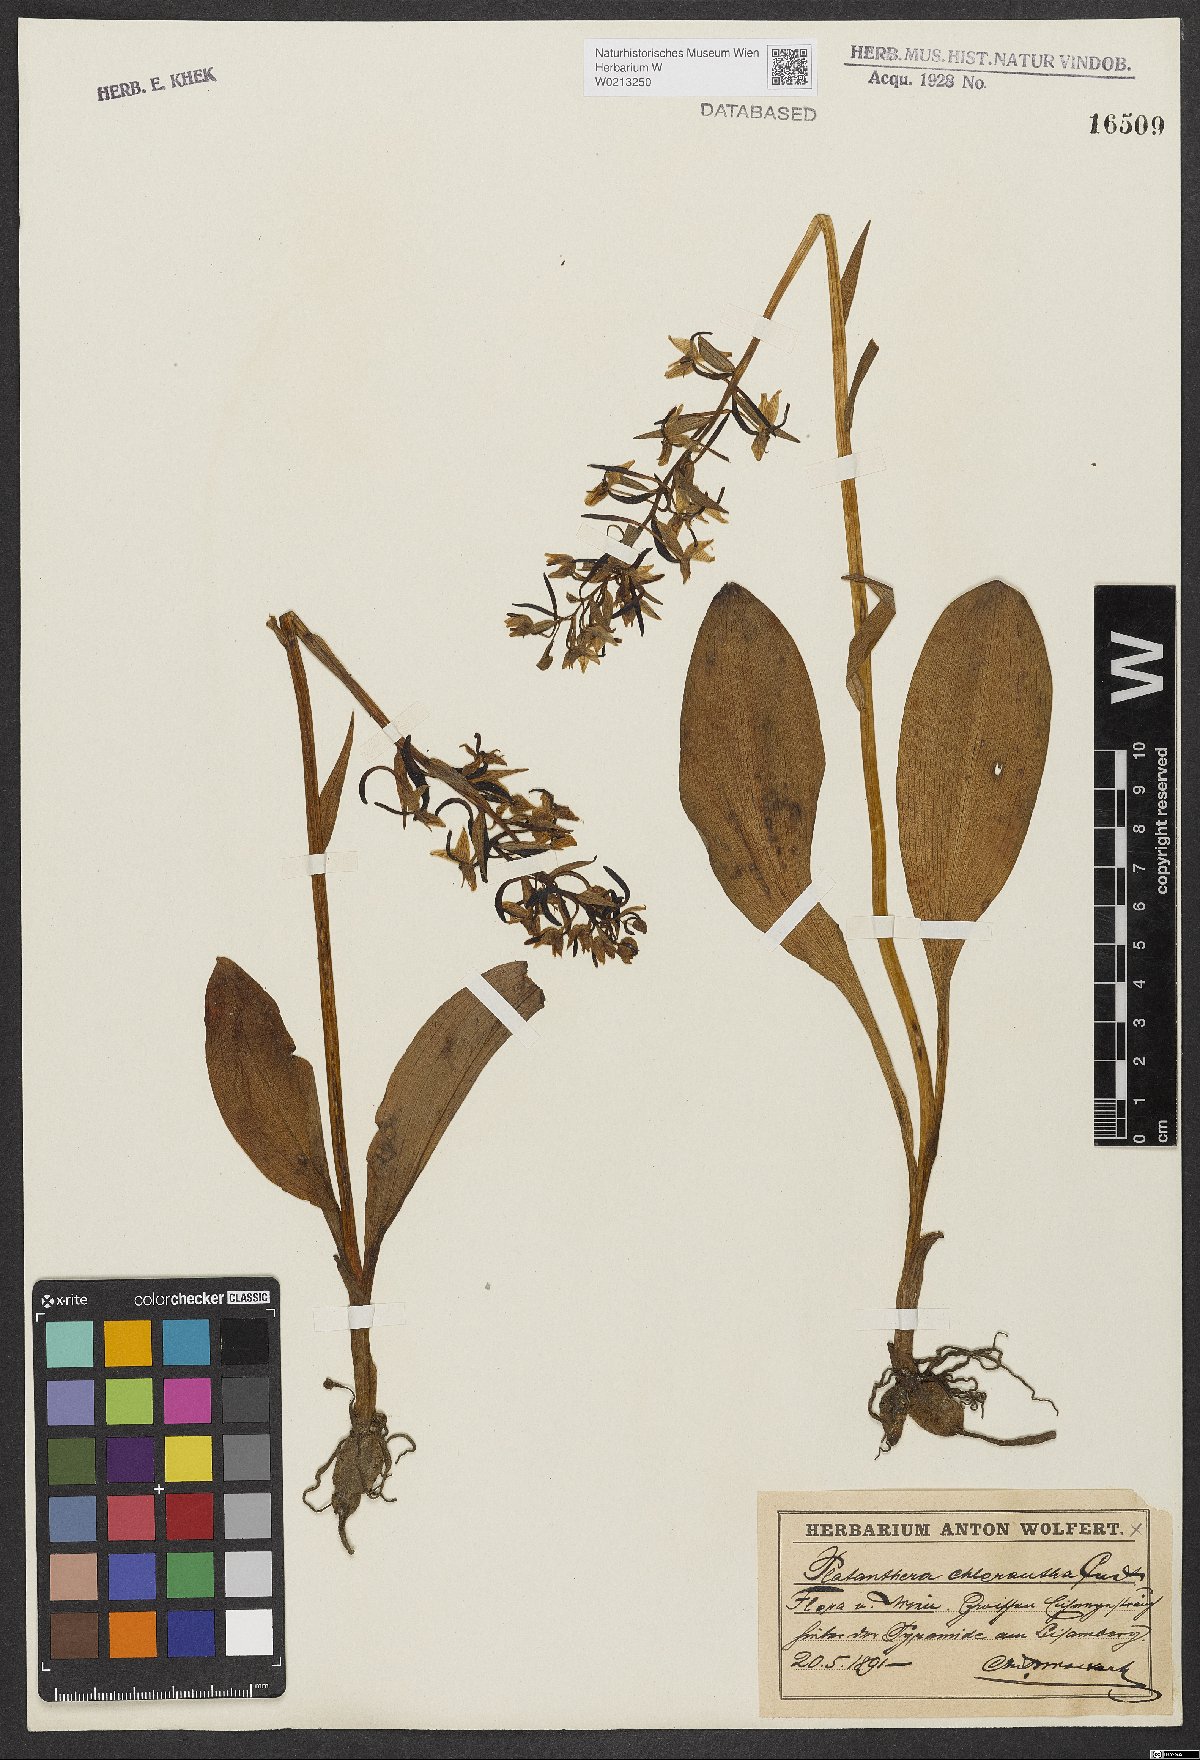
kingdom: Plantae
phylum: Tracheophyta
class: Liliopsida
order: Asparagales
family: Orchidaceae
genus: Platanthera
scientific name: Platanthera chlorantha
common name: Greater butterfly-orchid
